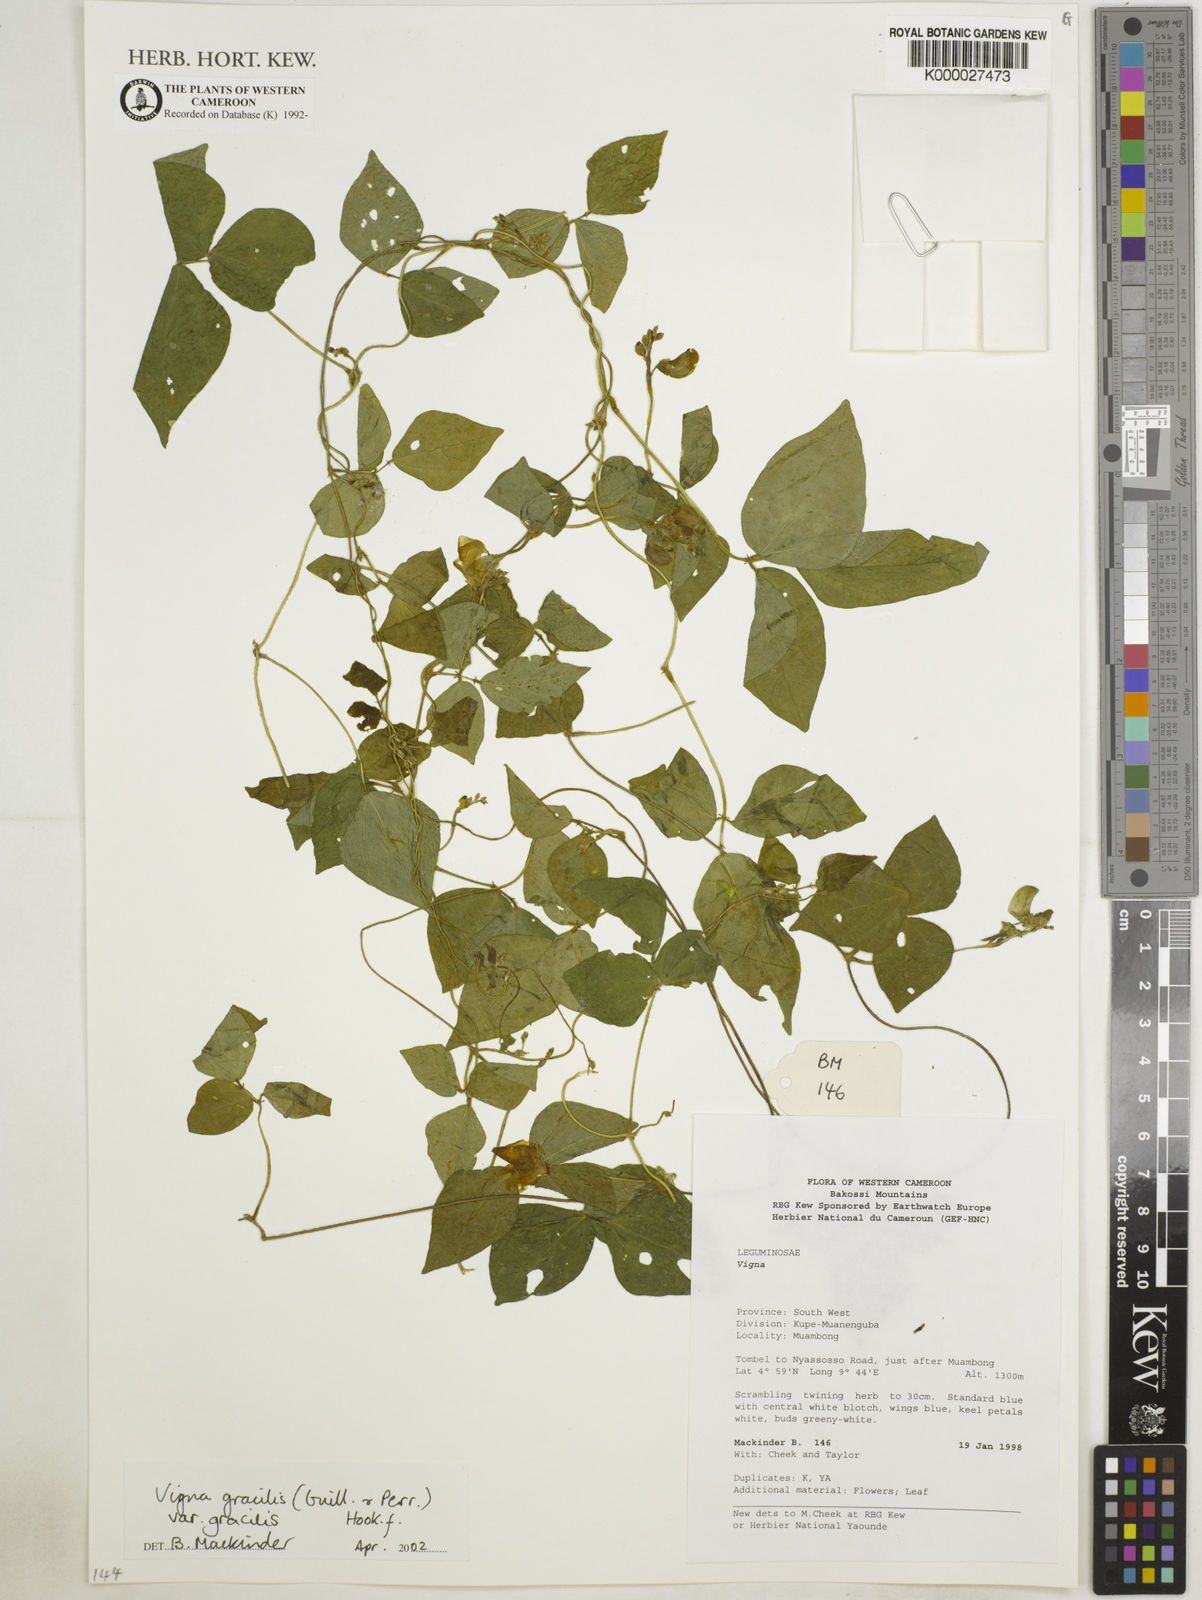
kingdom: Plantae
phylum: Tracheophyta
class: Magnoliopsida
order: Fabales
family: Fabaceae
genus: Vigna
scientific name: Vigna gracilis
